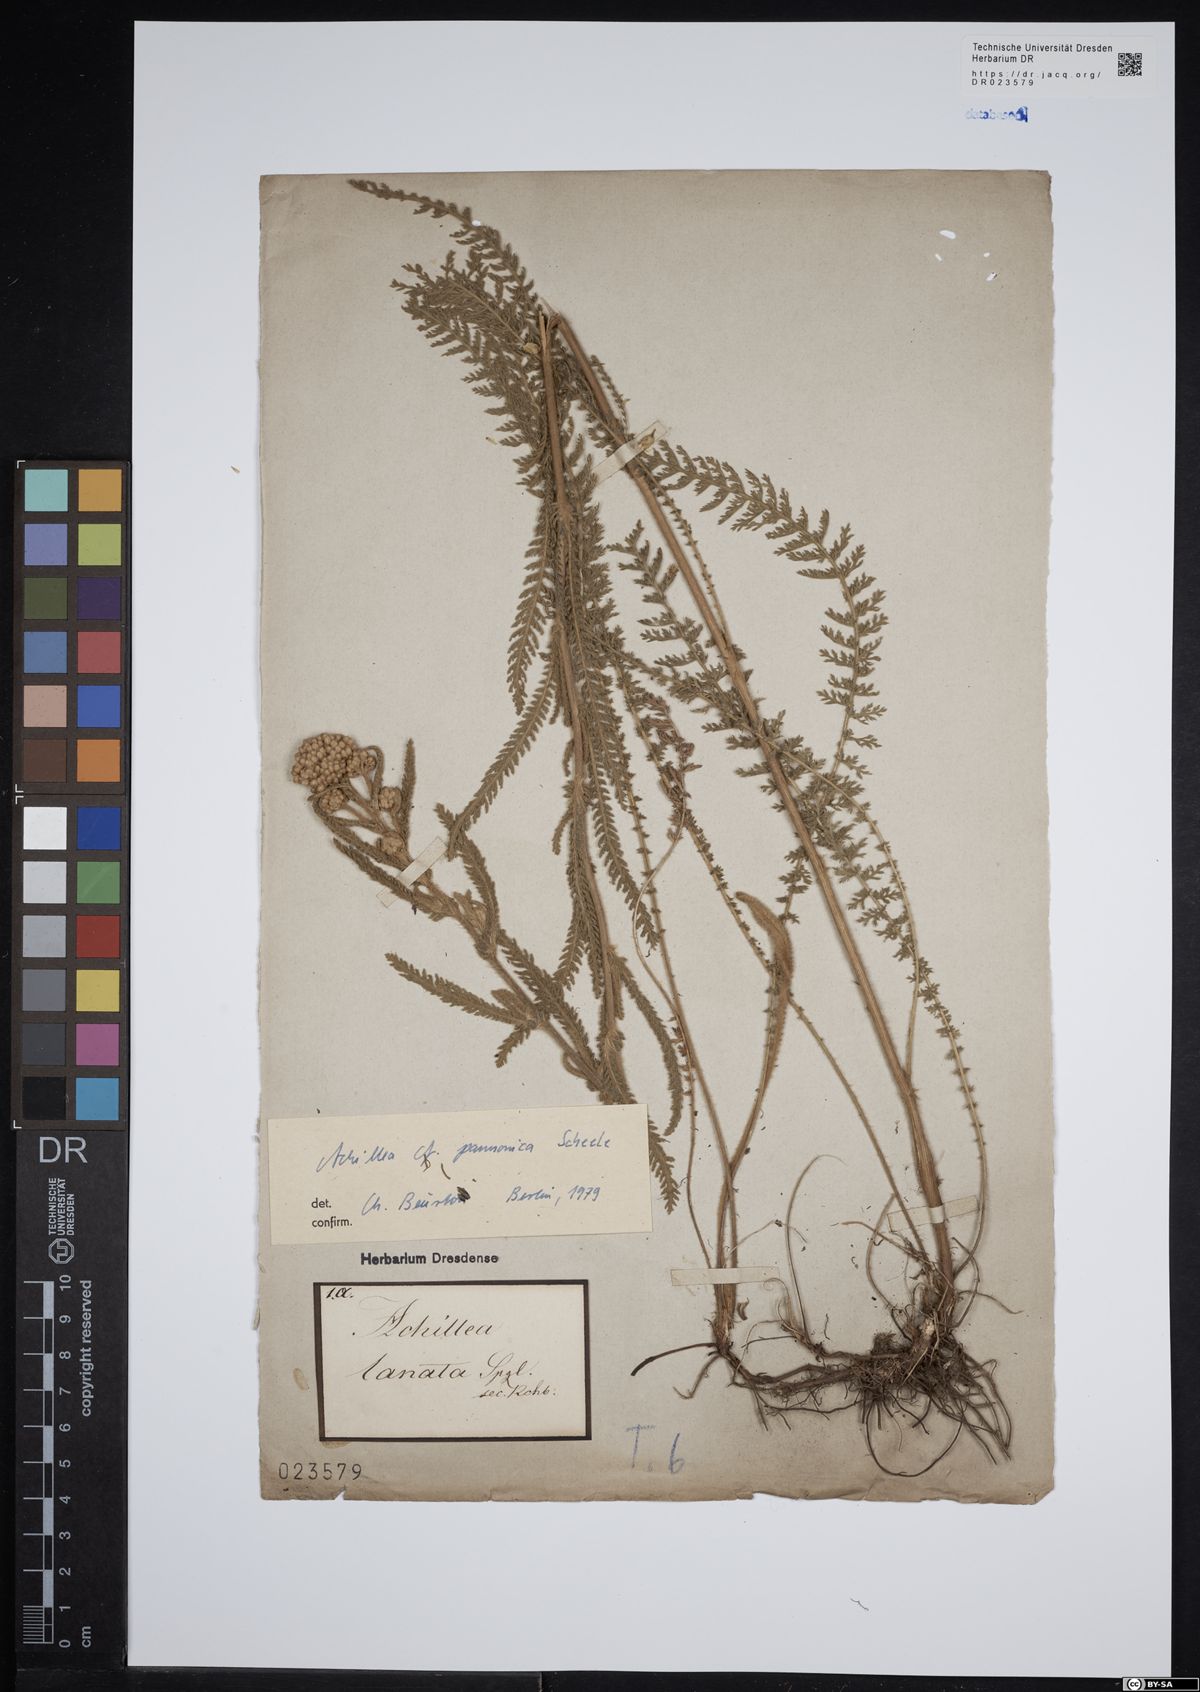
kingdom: Plantae
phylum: Tracheophyta
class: Magnoliopsida
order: Asterales
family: Asteraceae
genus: Achillea
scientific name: Achillea pannonica
